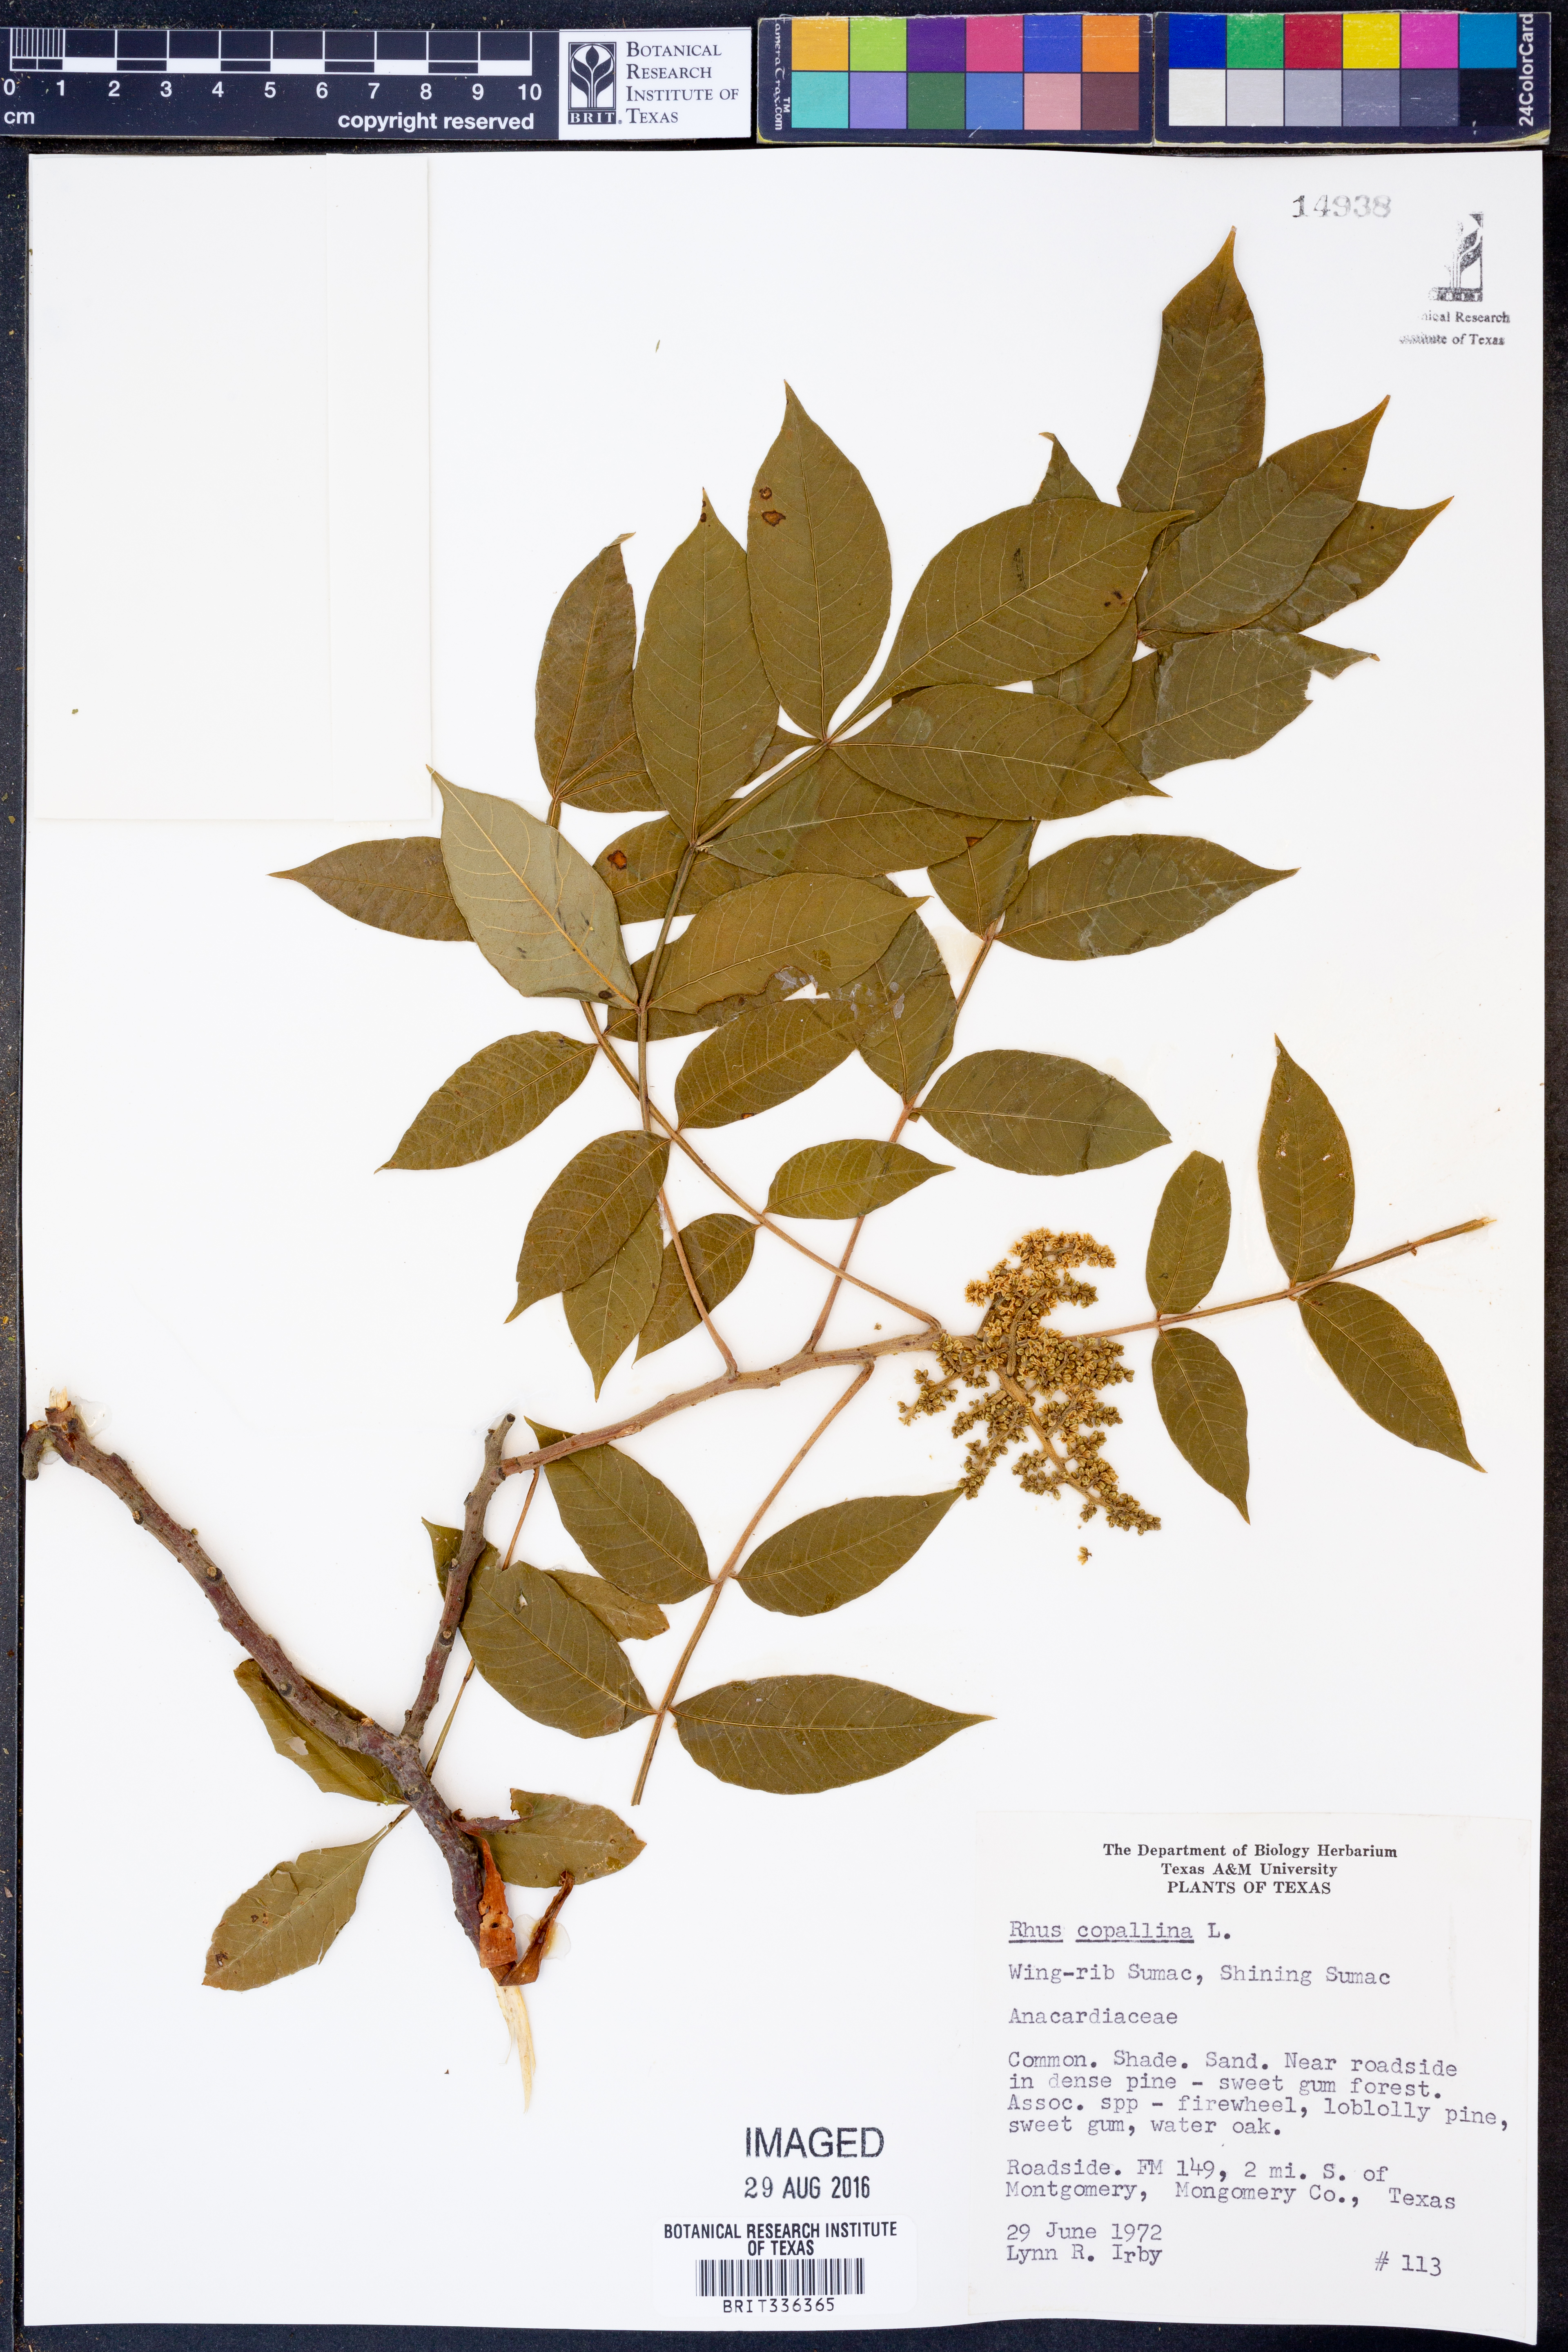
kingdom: Plantae
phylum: Tracheophyta
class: Magnoliopsida
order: Sapindales
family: Anacardiaceae
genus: Rhus
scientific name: Rhus copallina
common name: Shining sumac
